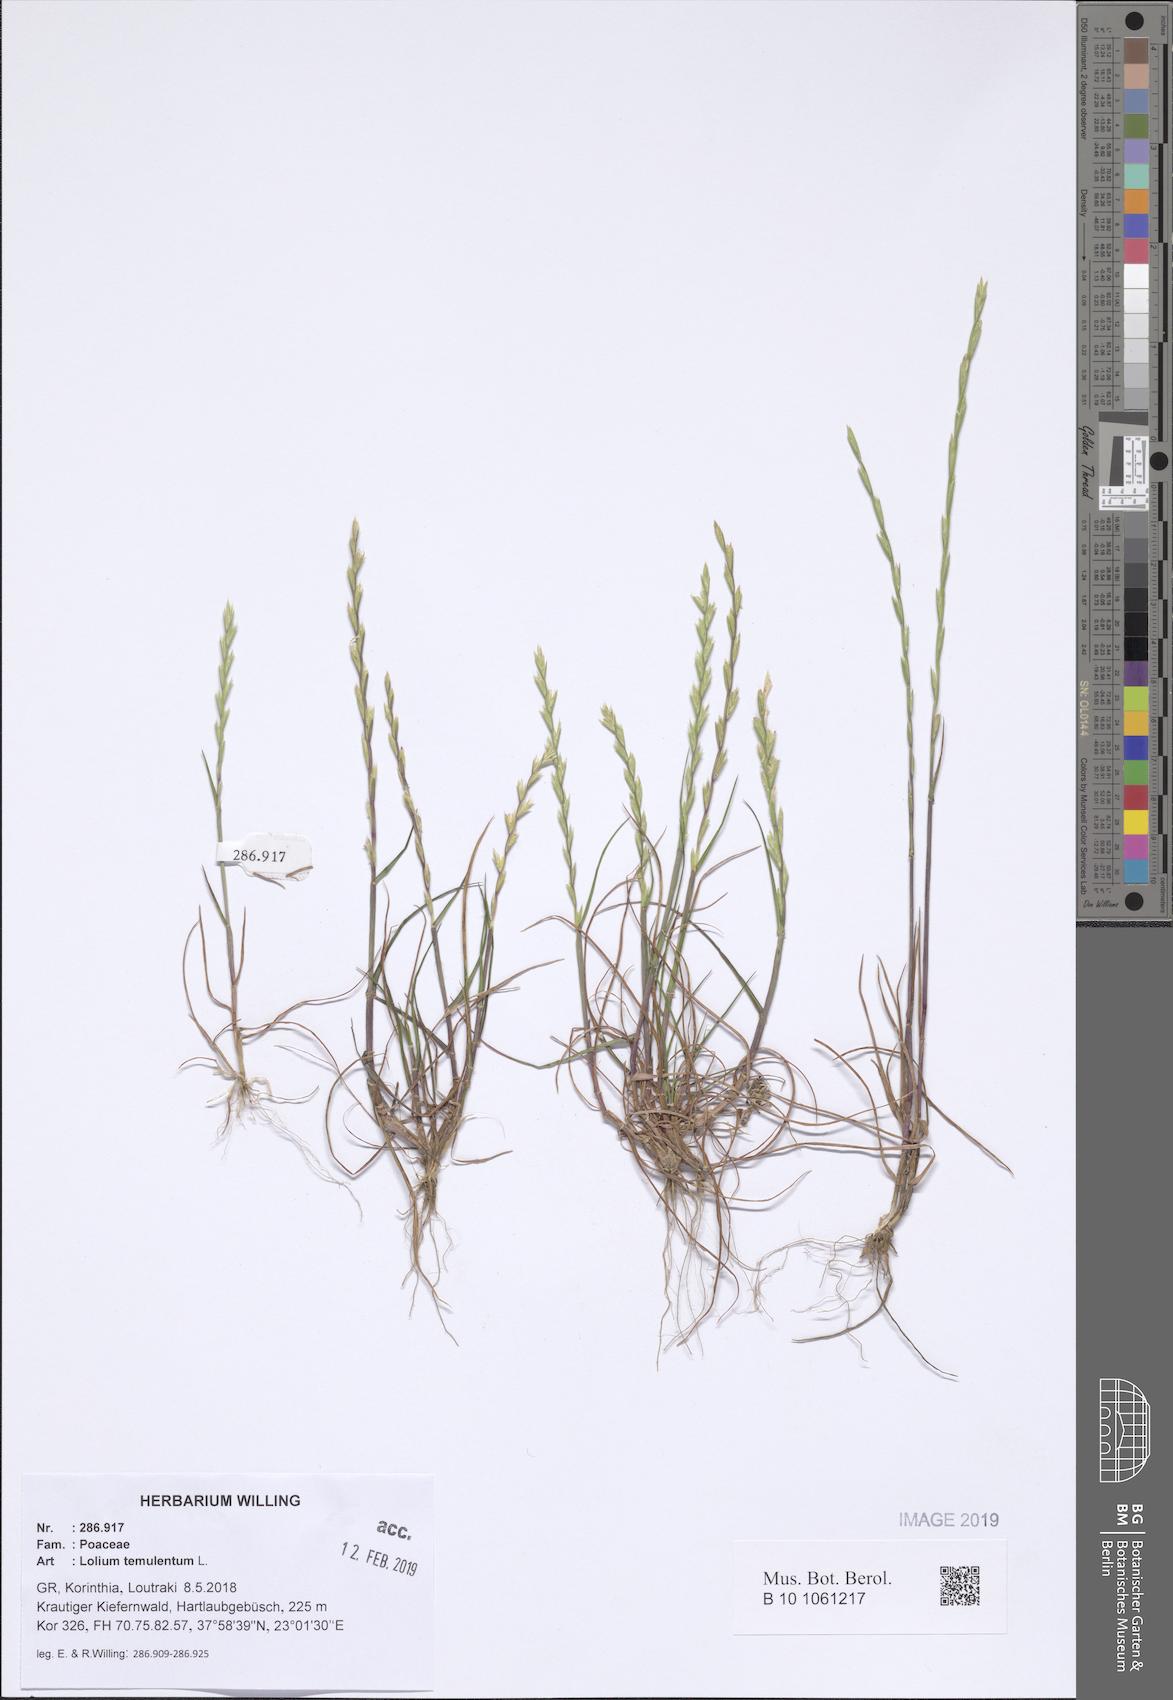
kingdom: Plantae
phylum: Tracheophyta
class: Liliopsida
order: Poales
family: Poaceae
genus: Lolium
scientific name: Lolium temulentum
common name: Darnel
